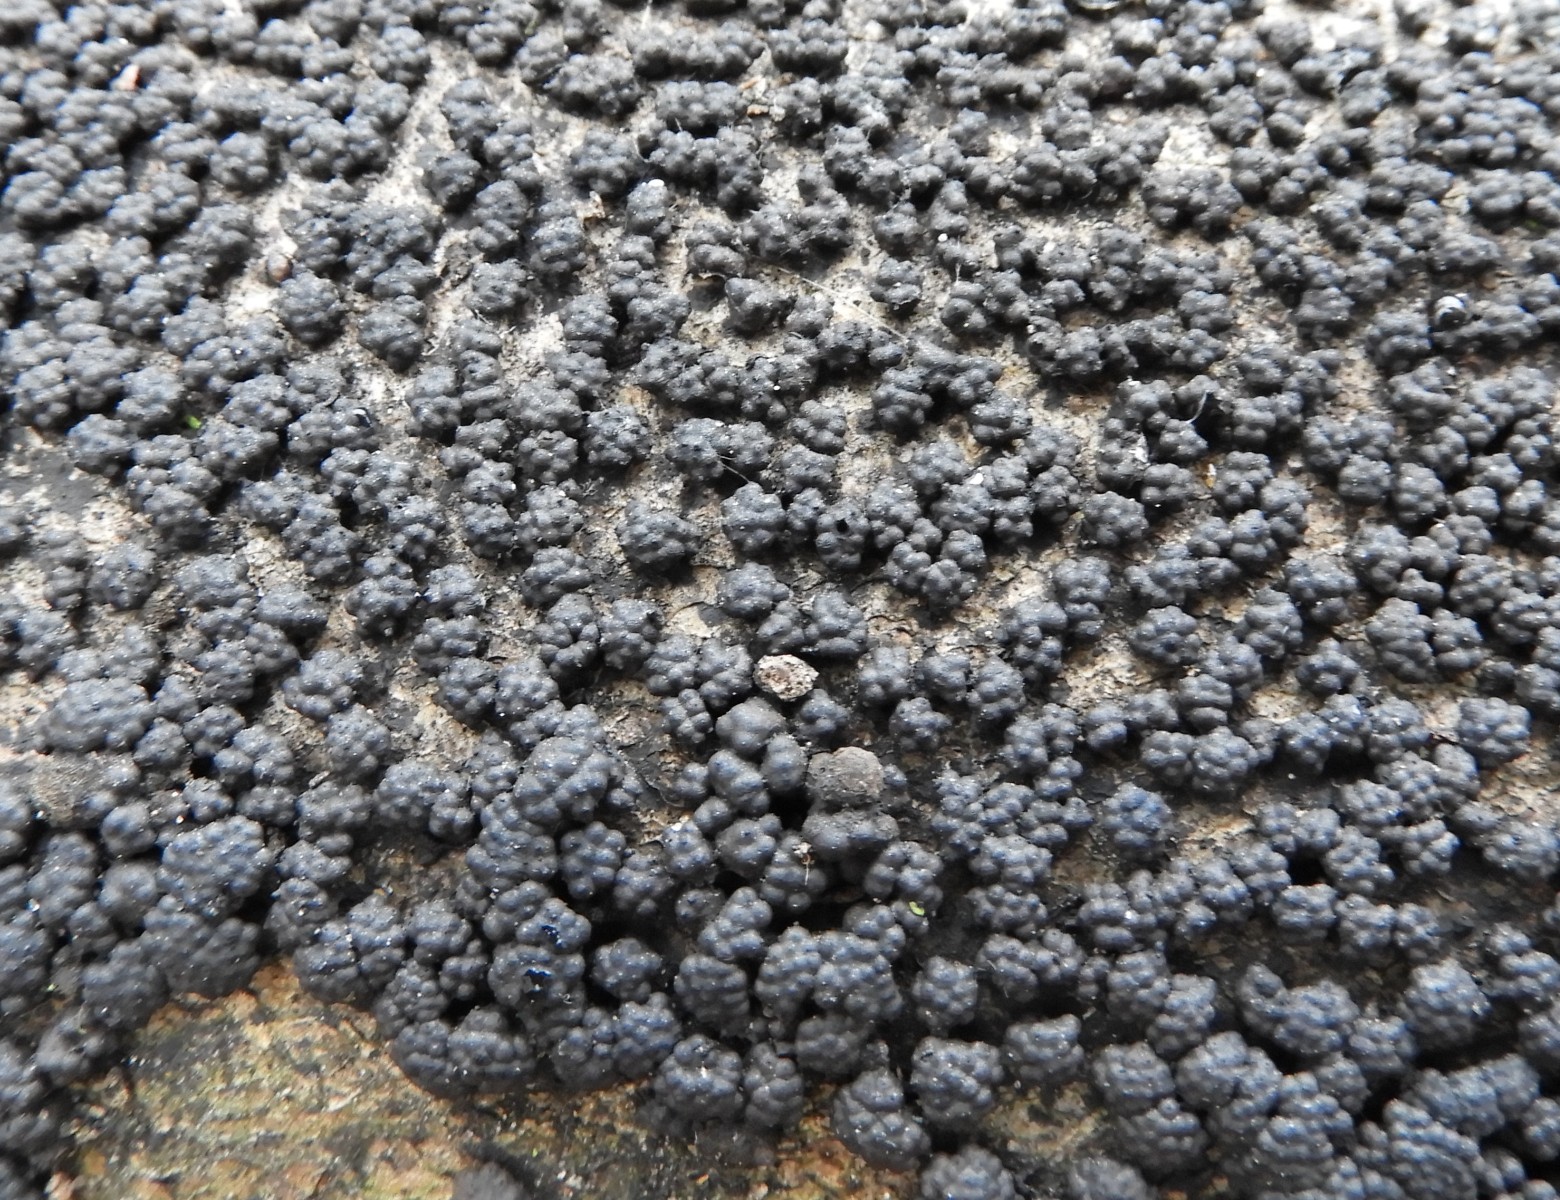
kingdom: Fungi
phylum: Ascomycota
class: Sordariomycetes
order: Xylariales
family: Hypoxylaceae
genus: Jackrogersella
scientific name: Jackrogersella cohaerens
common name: sammenflydende kulbær
